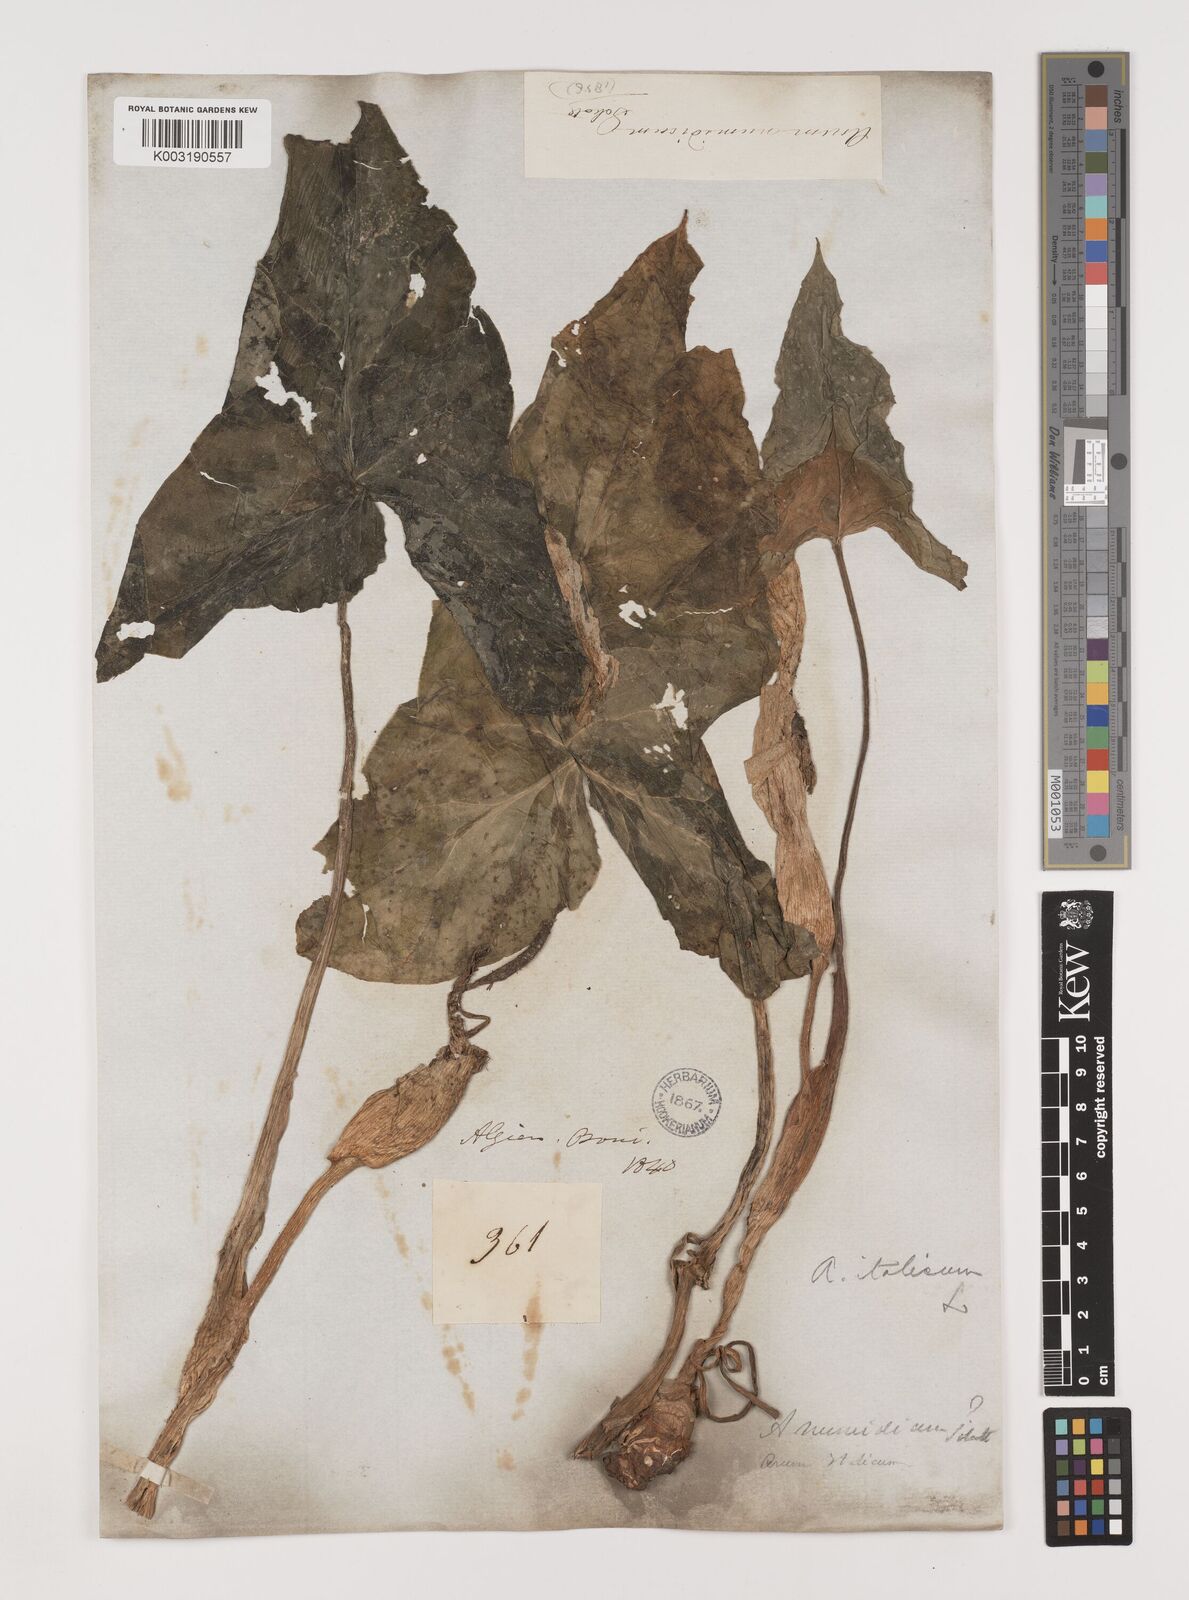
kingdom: Plantae
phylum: Tracheophyta
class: Liliopsida
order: Alismatales
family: Araceae
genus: Arum
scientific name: Arum italicum
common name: Italian lords-and-ladies
